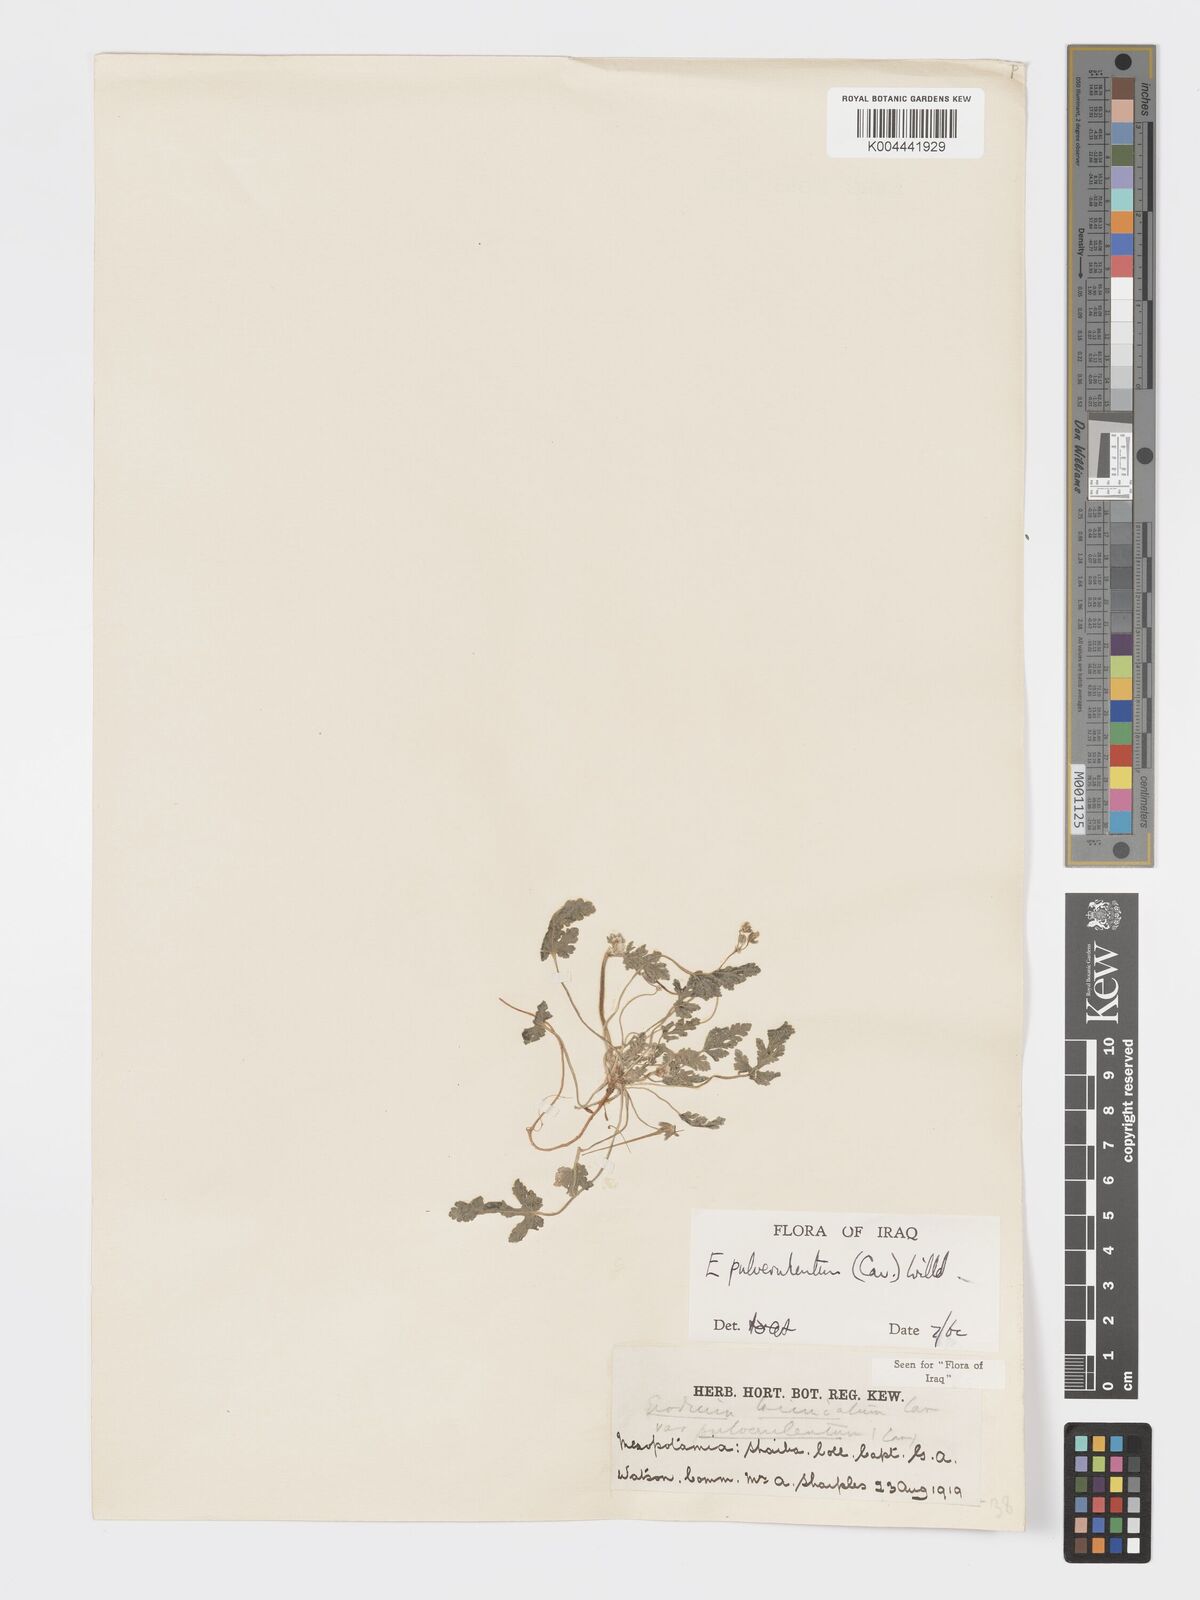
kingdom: Plantae
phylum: Tracheophyta
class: Magnoliopsida
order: Geraniales
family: Geraniaceae
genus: Erodium
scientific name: Erodium laciniatum
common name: Cutleaf stork's bill
